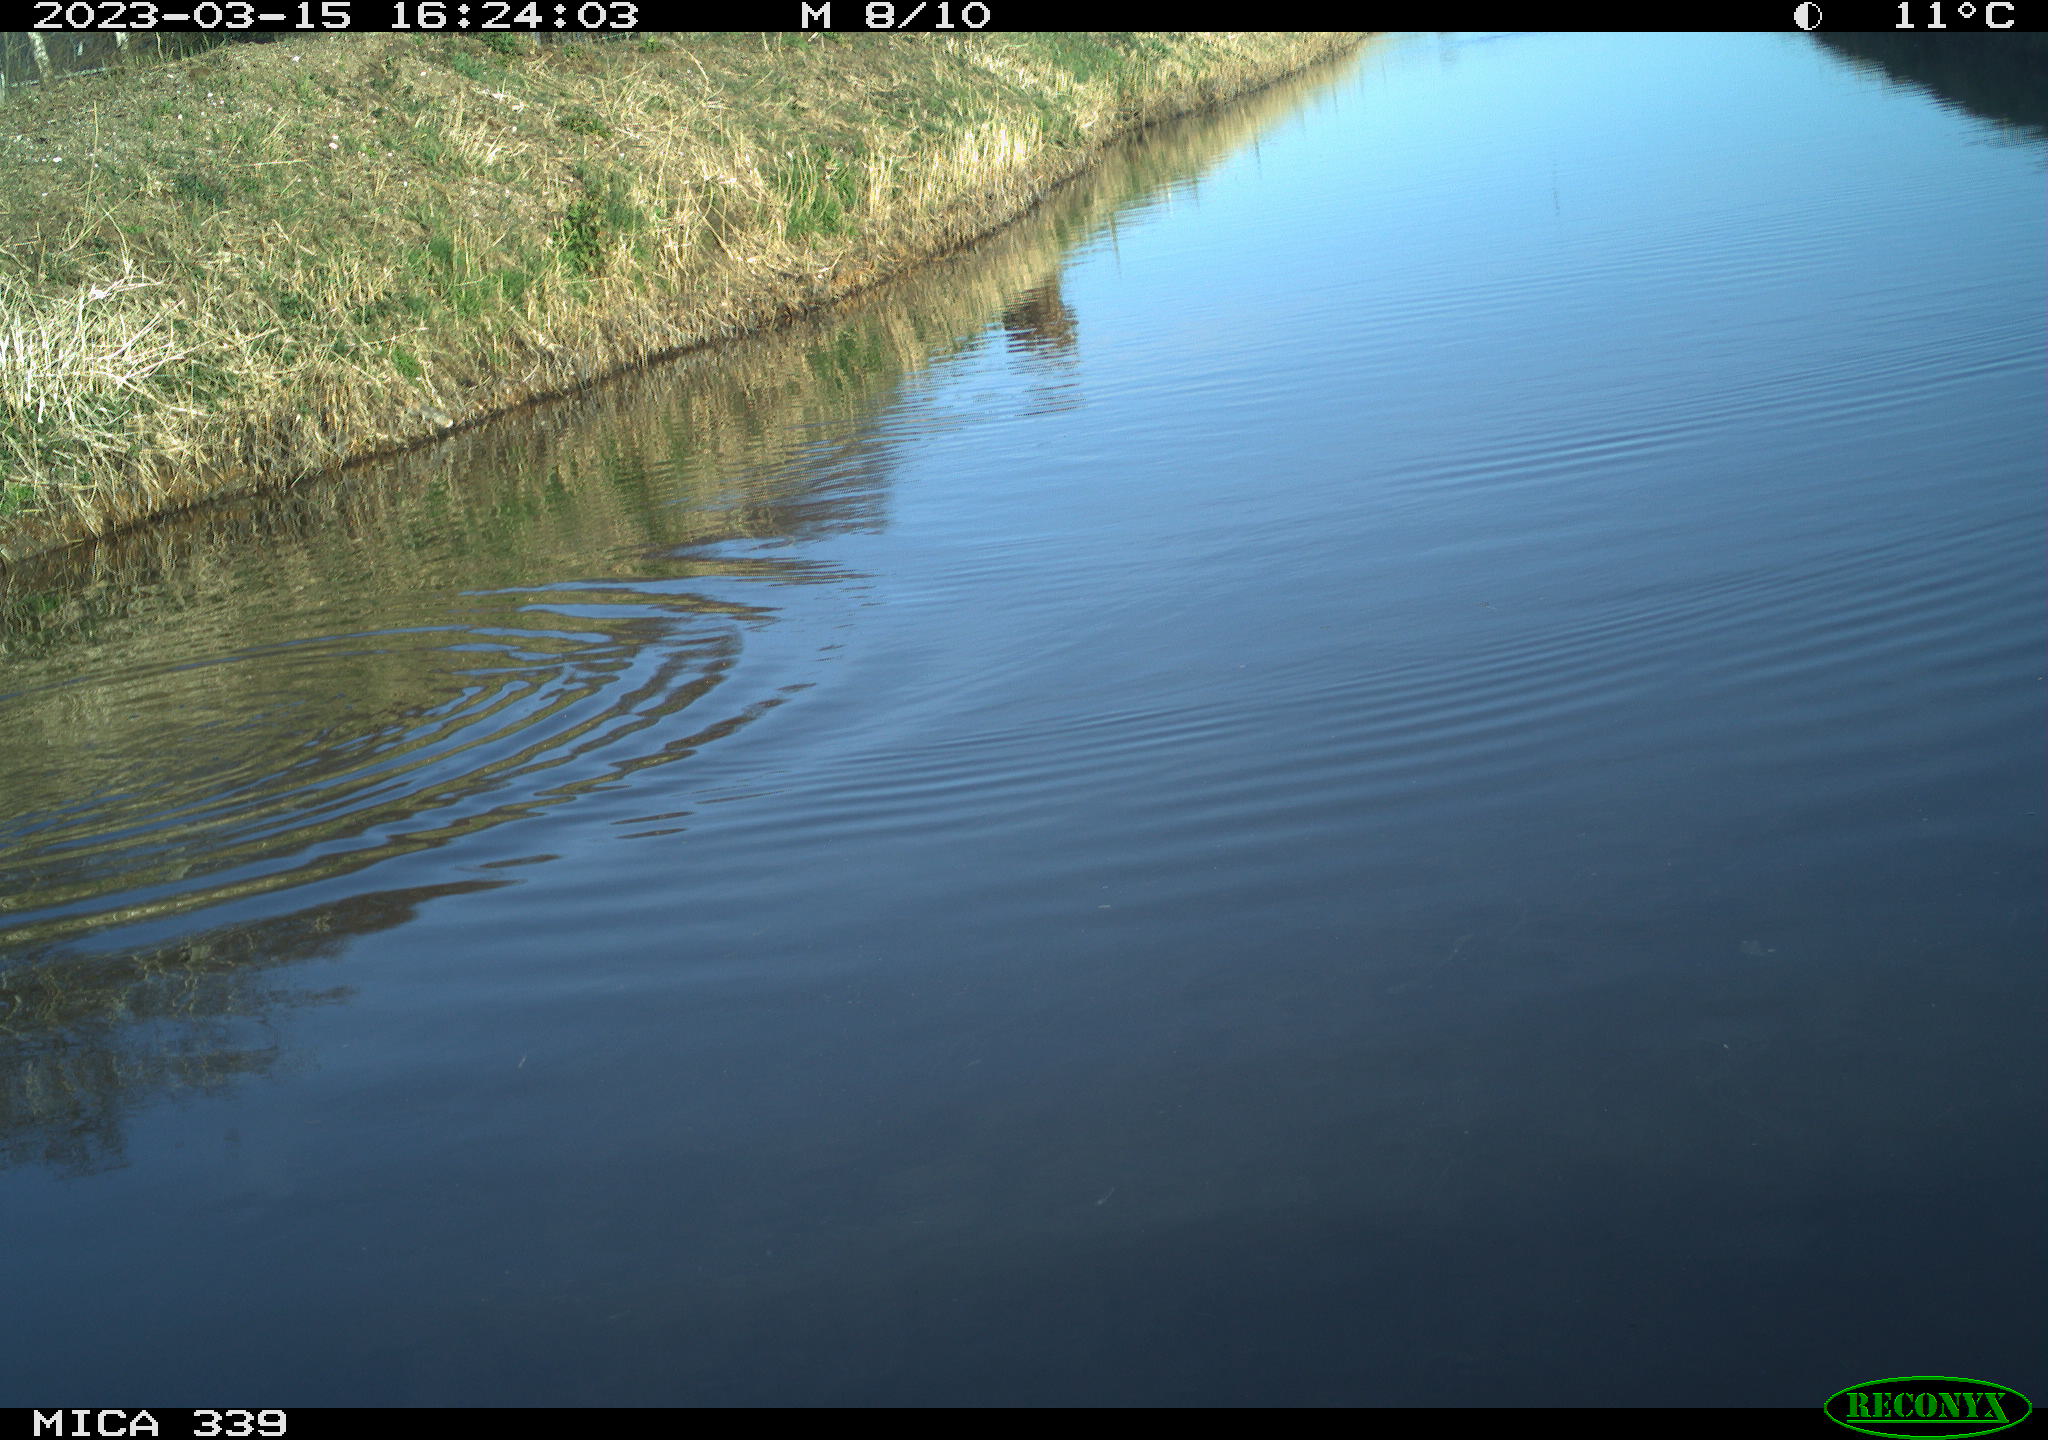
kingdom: Animalia
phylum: Chordata
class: Aves
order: Gruiformes
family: Rallidae
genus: Fulica
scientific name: Fulica atra
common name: Eurasian coot
